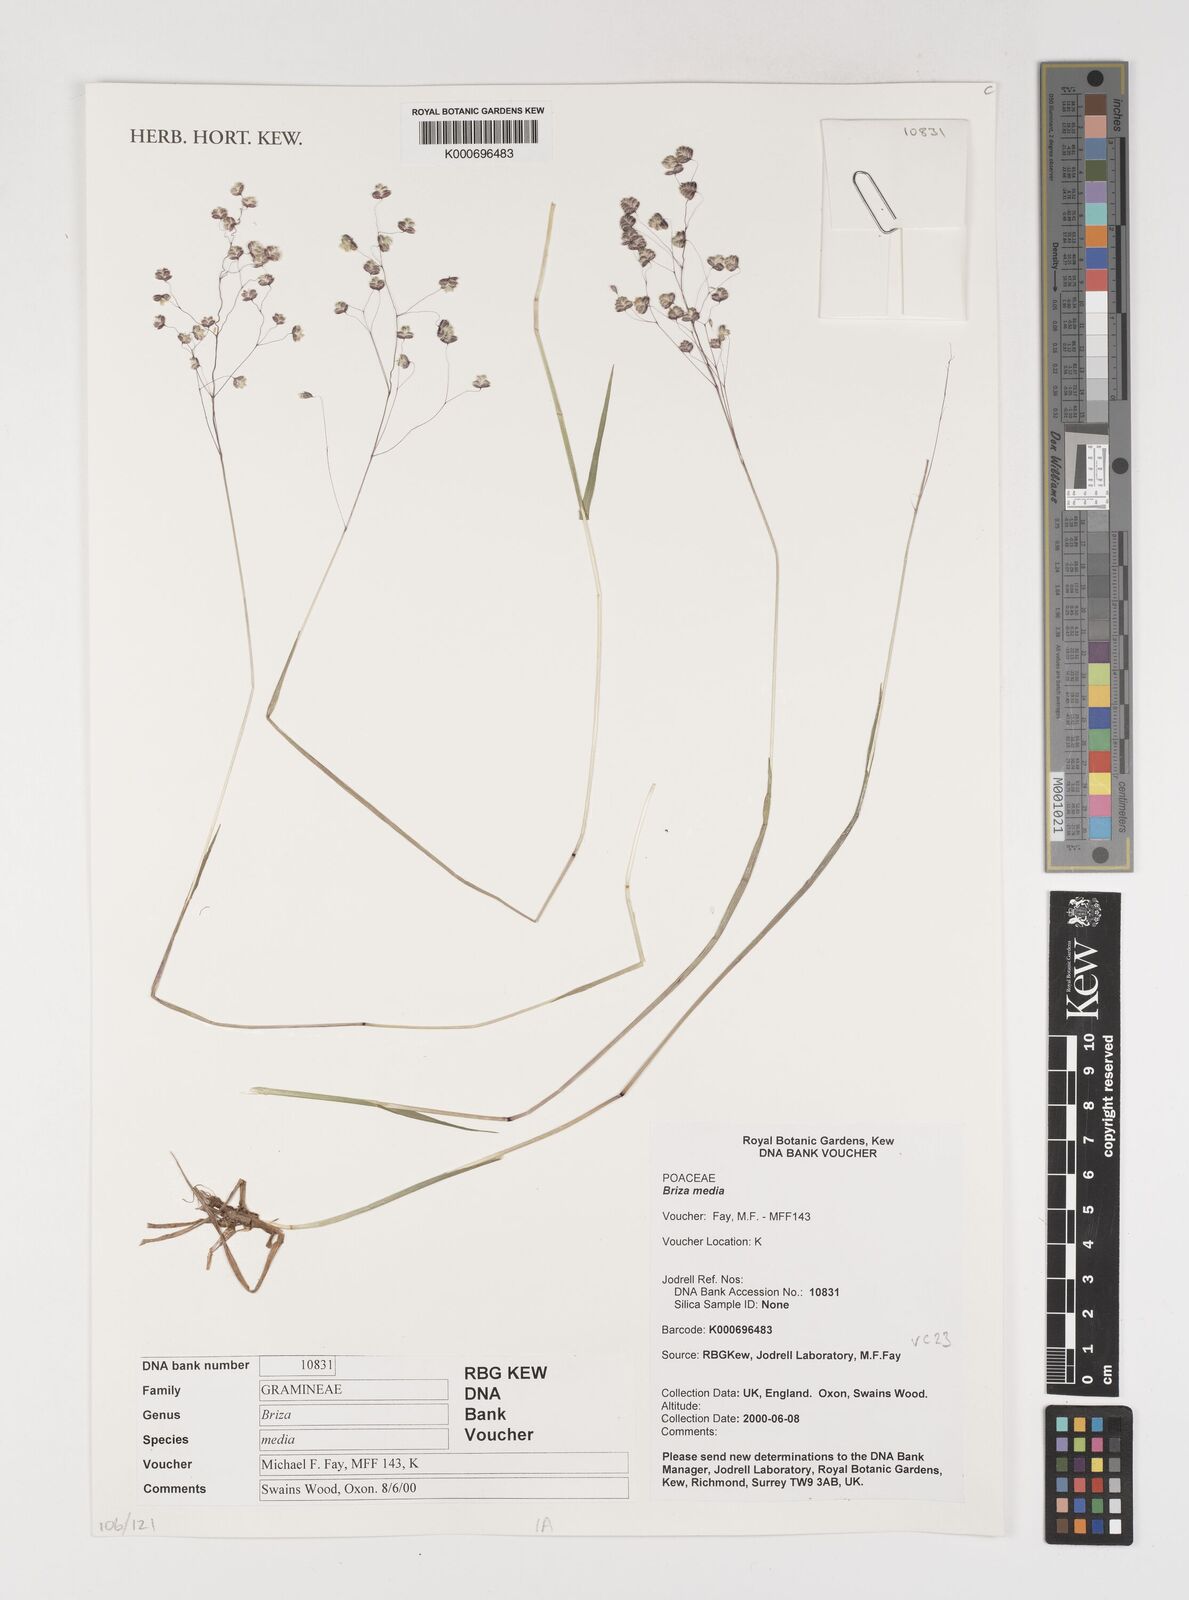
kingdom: Plantae
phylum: Tracheophyta
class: Liliopsida
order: Poales
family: Poaceae
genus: Briza
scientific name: Briza media
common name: Quaking grass
